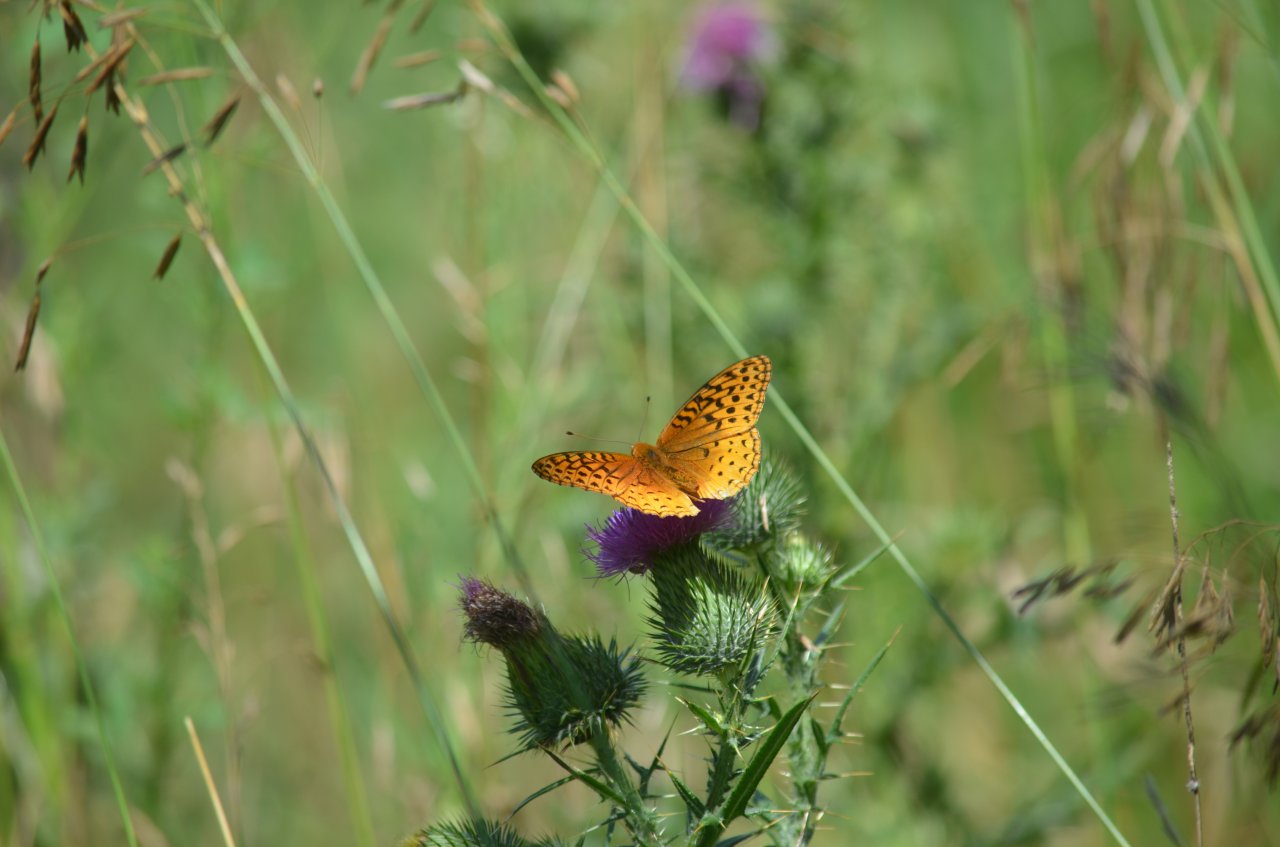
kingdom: Animalia
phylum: Arthropoda
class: Insecta
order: Lepidoptera
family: Nymphalidae
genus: Speyeria
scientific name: Speyeria cybele
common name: Great Spangled Fritillary
